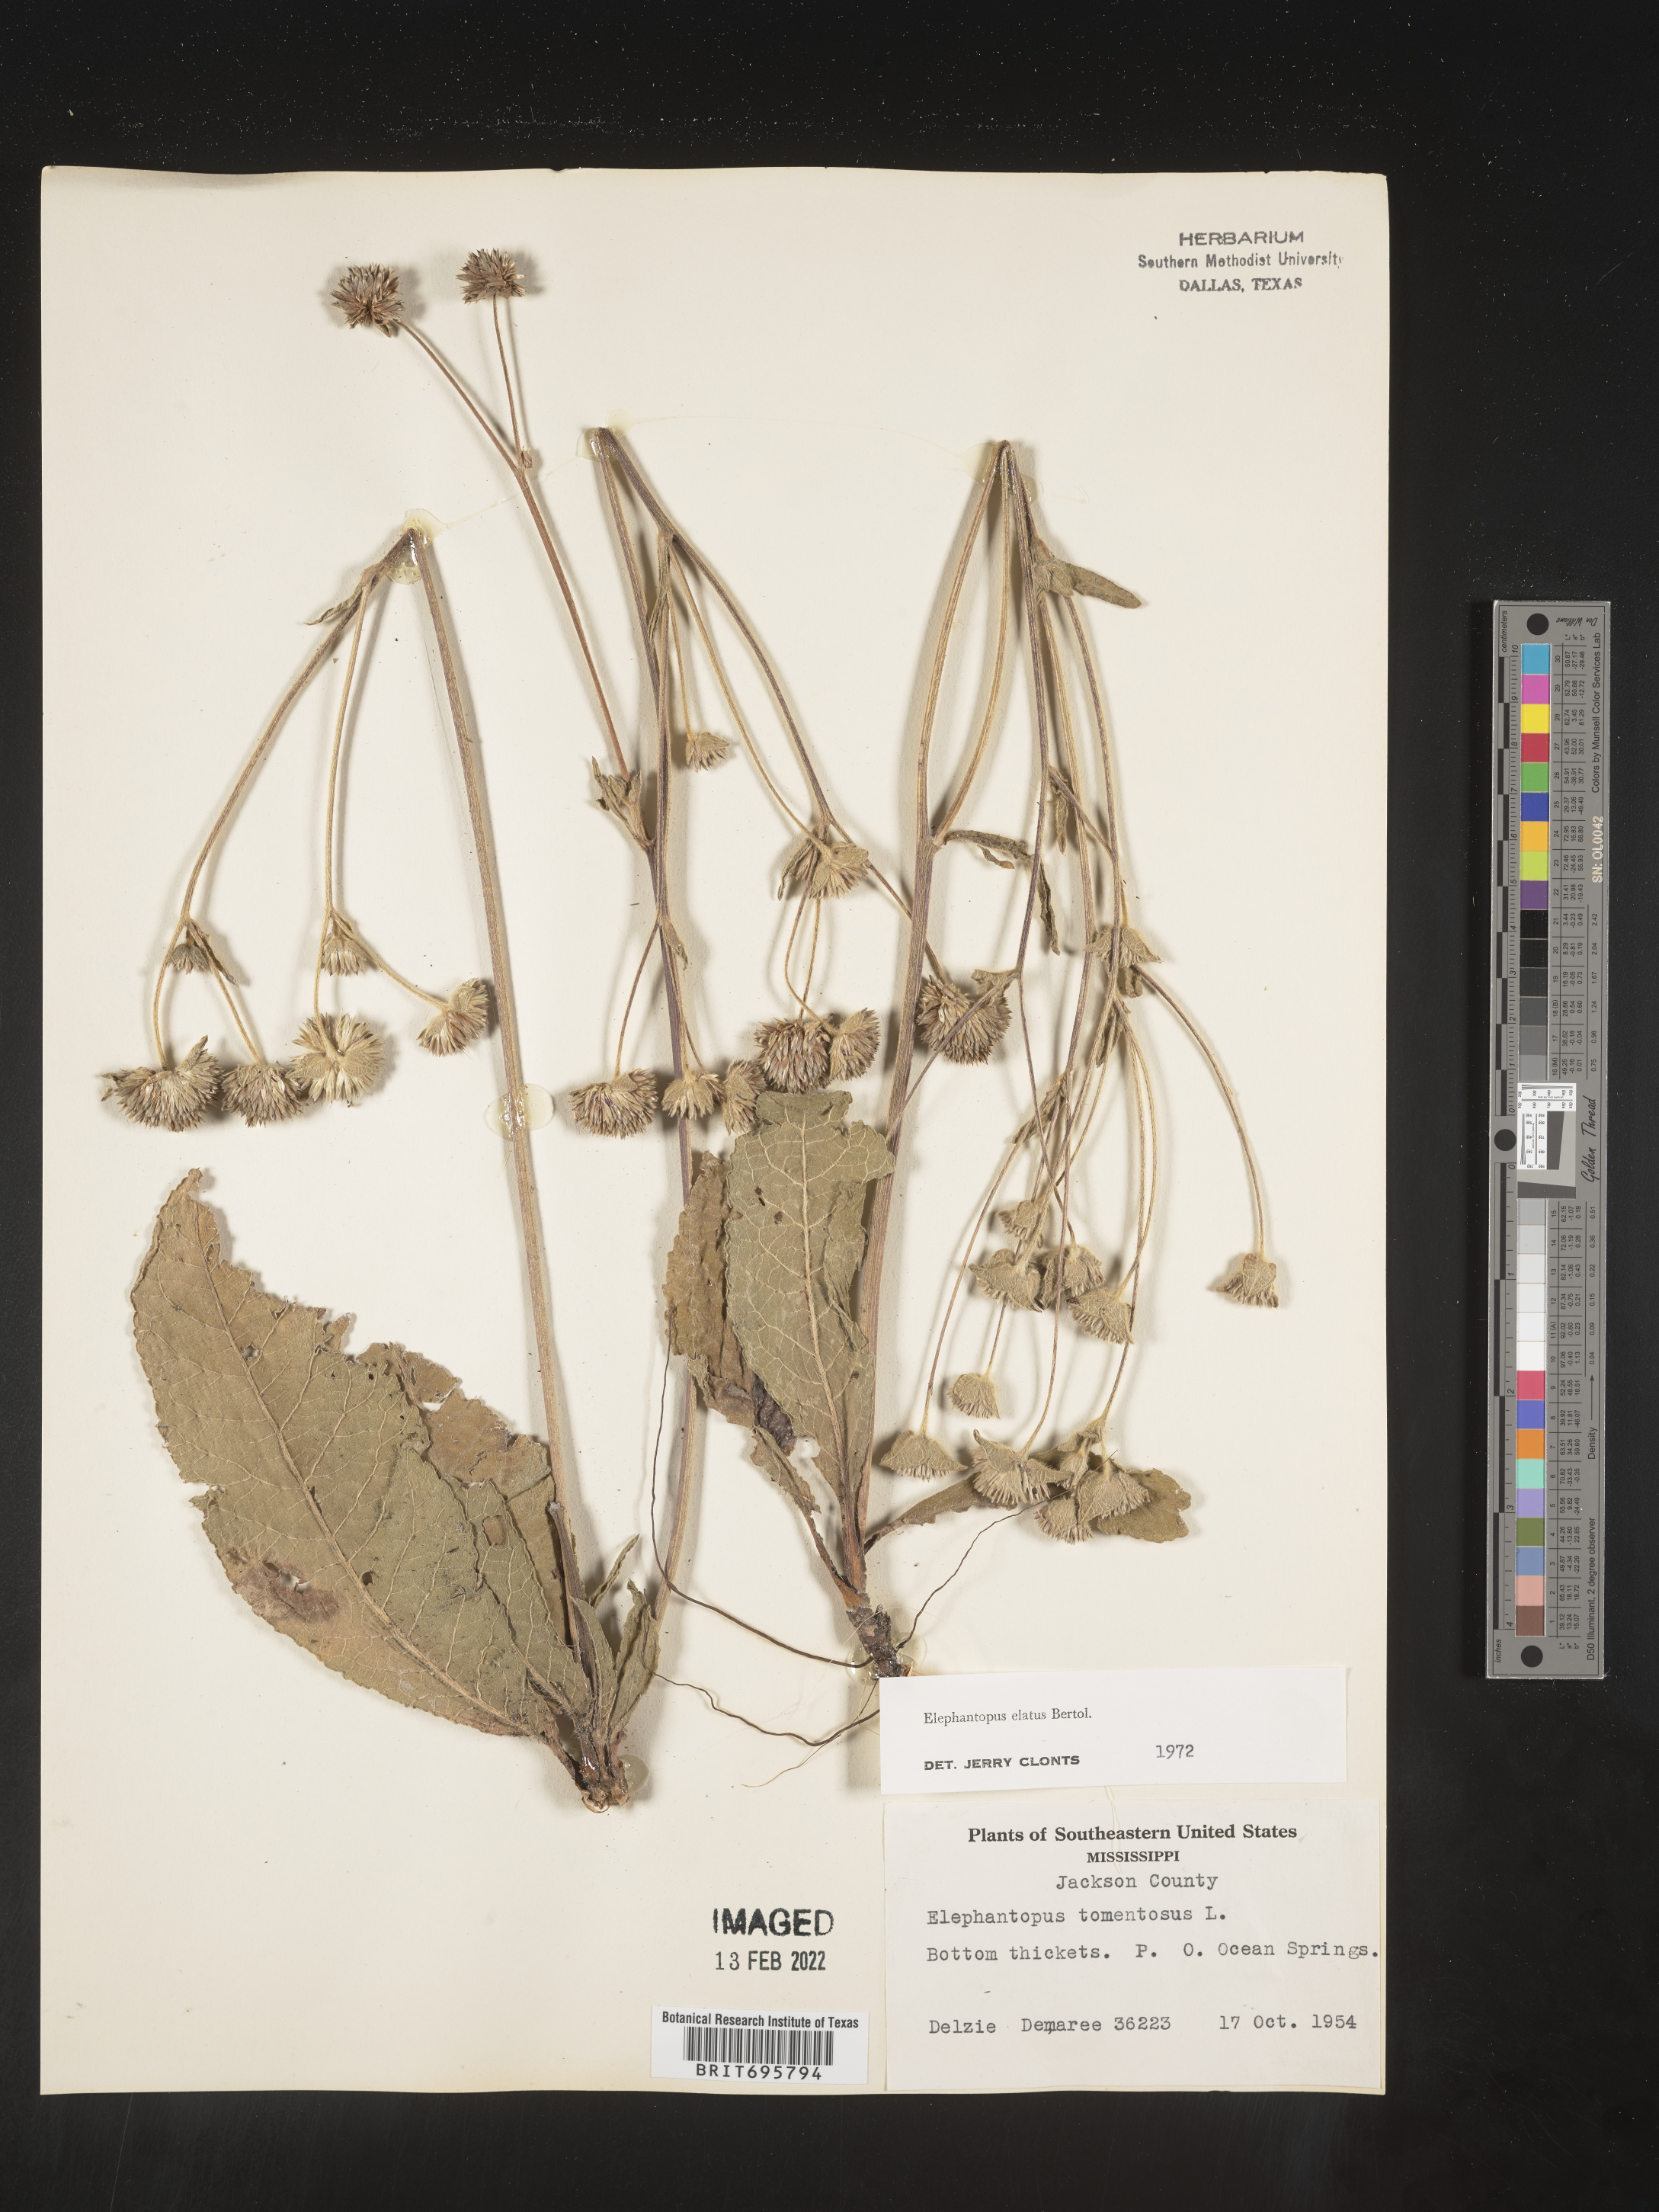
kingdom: Plantae
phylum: Tracheophyta
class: Magnoliopsida
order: Asterales
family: Asteraceae
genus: Elephantopus
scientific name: Elephantopus elatus
